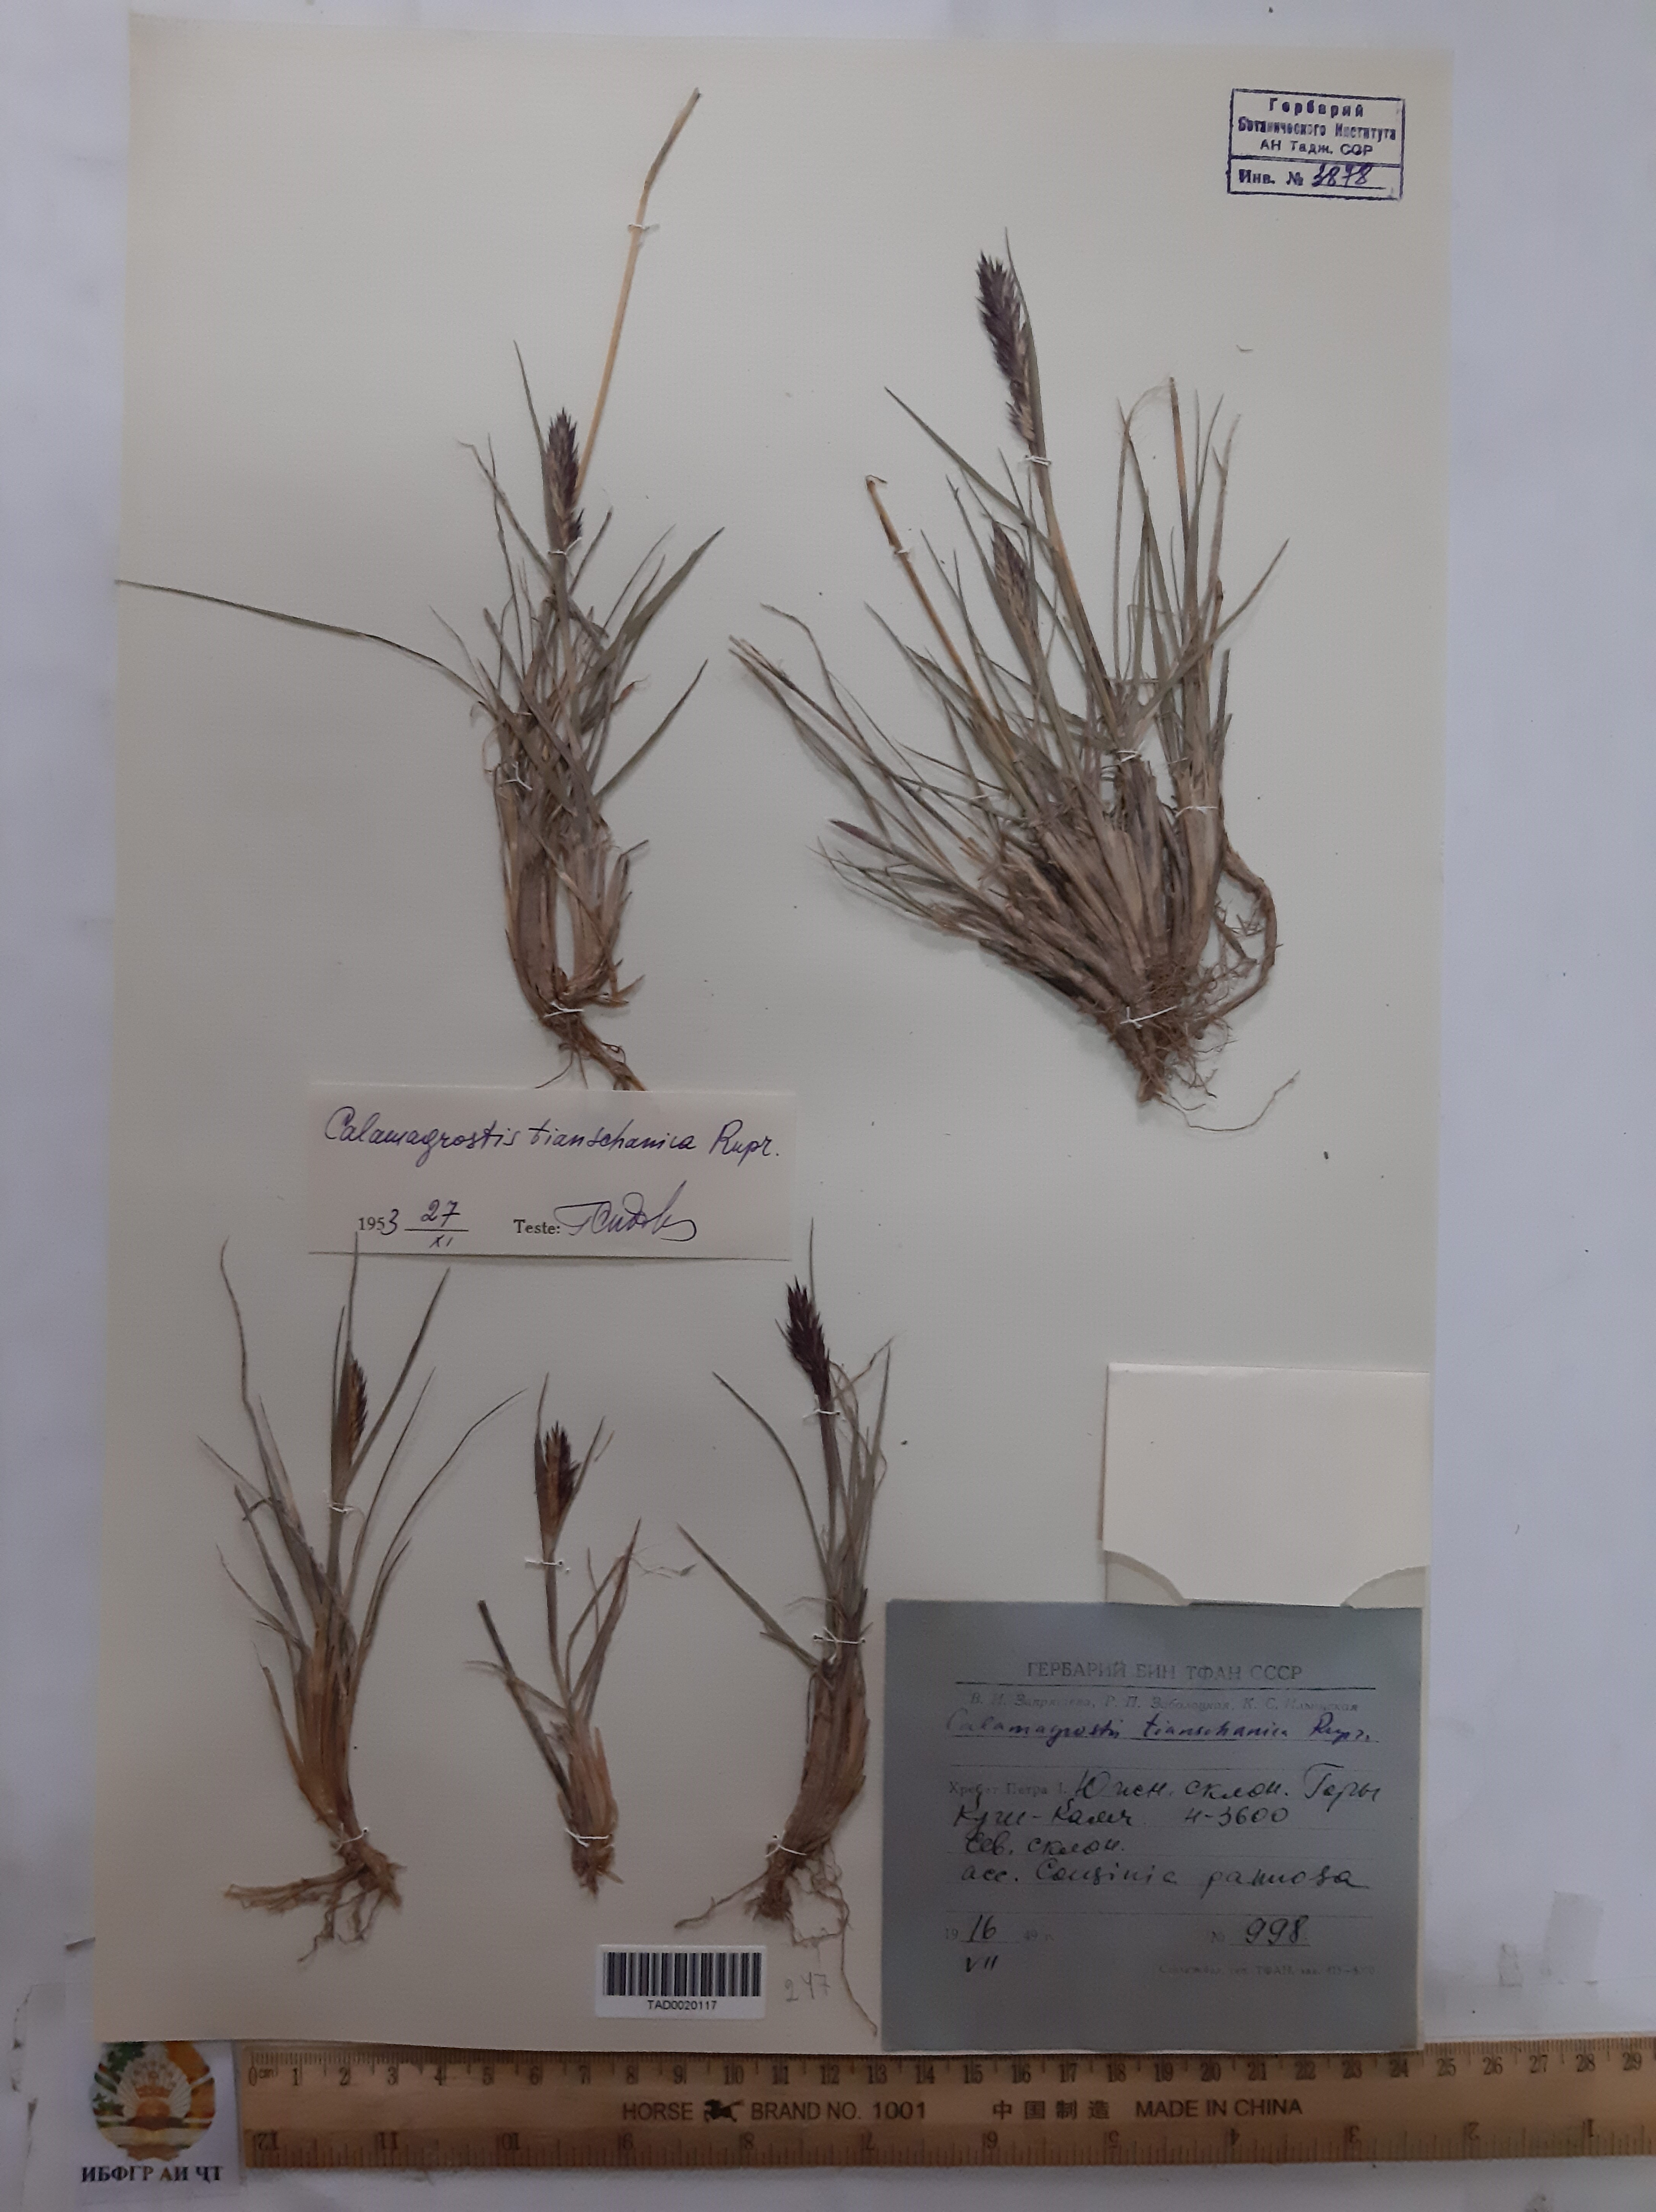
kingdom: Plantae
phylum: Tracheophyta
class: Liliopsida
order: Poales
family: Poaceae
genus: Calamagrostis
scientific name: Calamagrostis tianschanica
